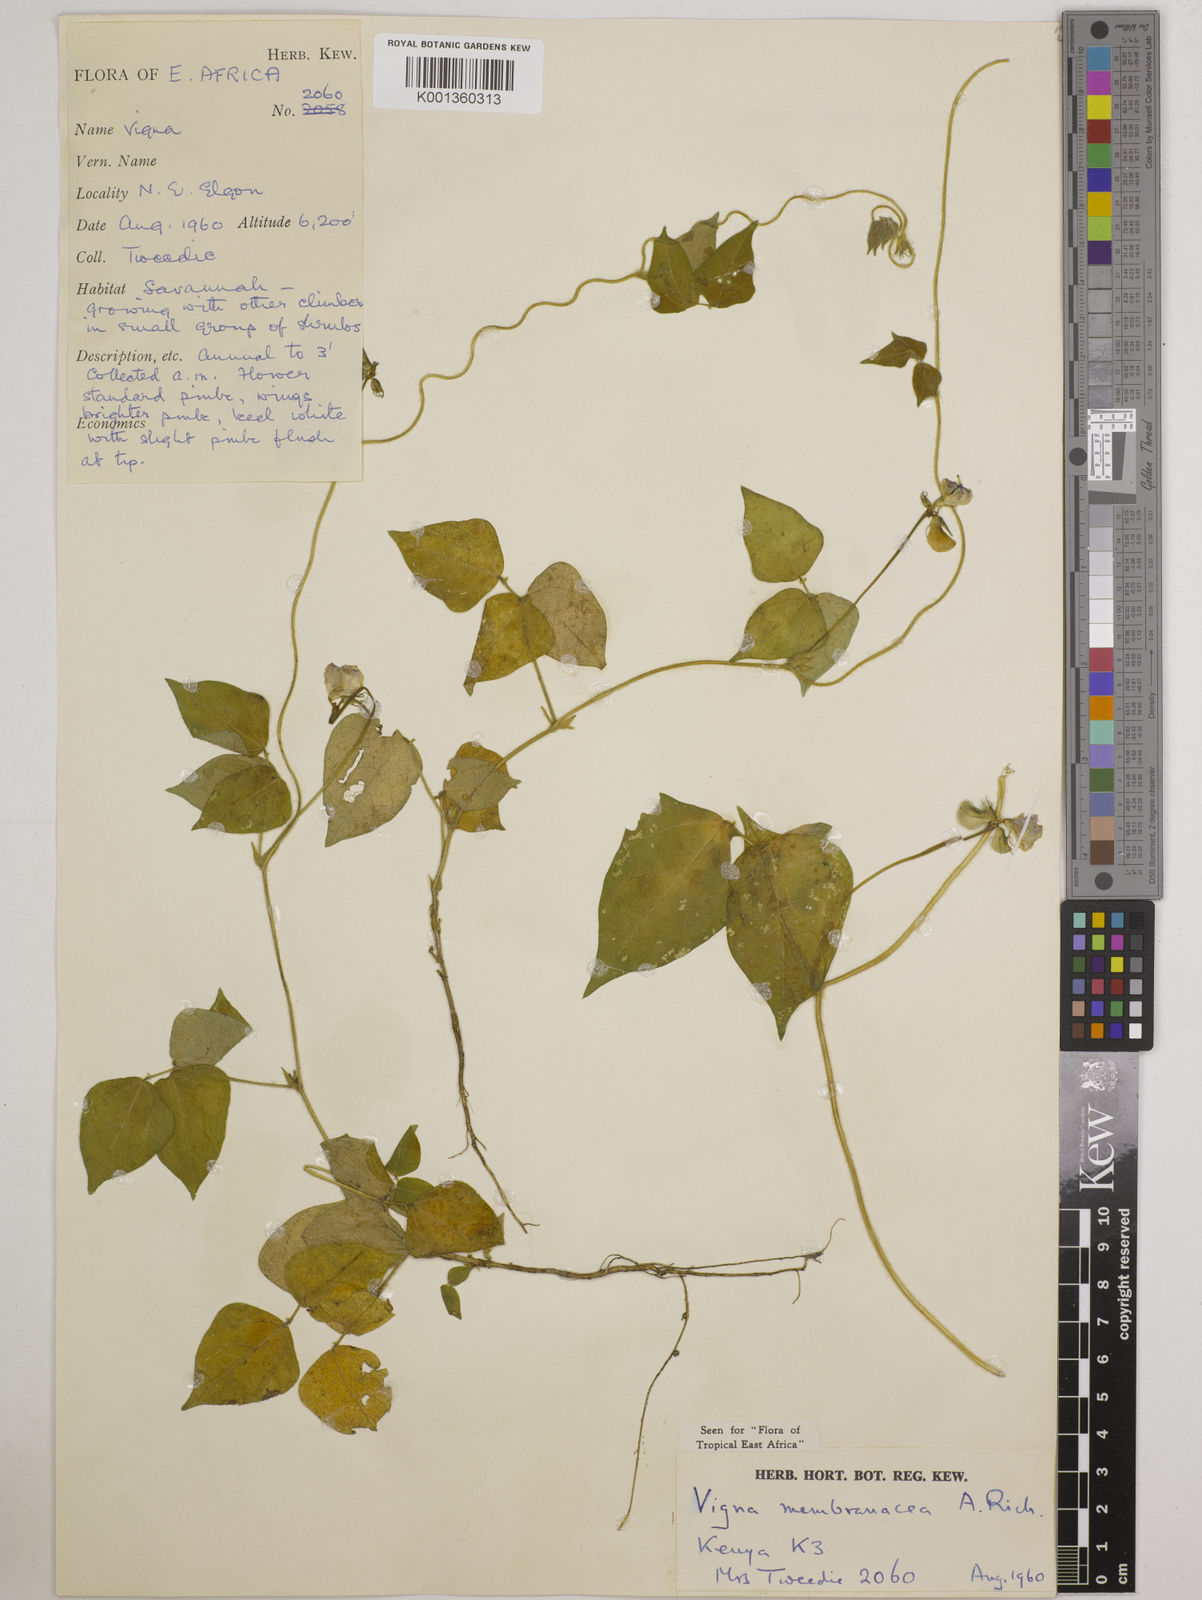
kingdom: Plantae
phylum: Tracheophyta
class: Magnoliopsida
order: Fabales
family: Fabaceae
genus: Vigna
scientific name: Vigna membranacea
